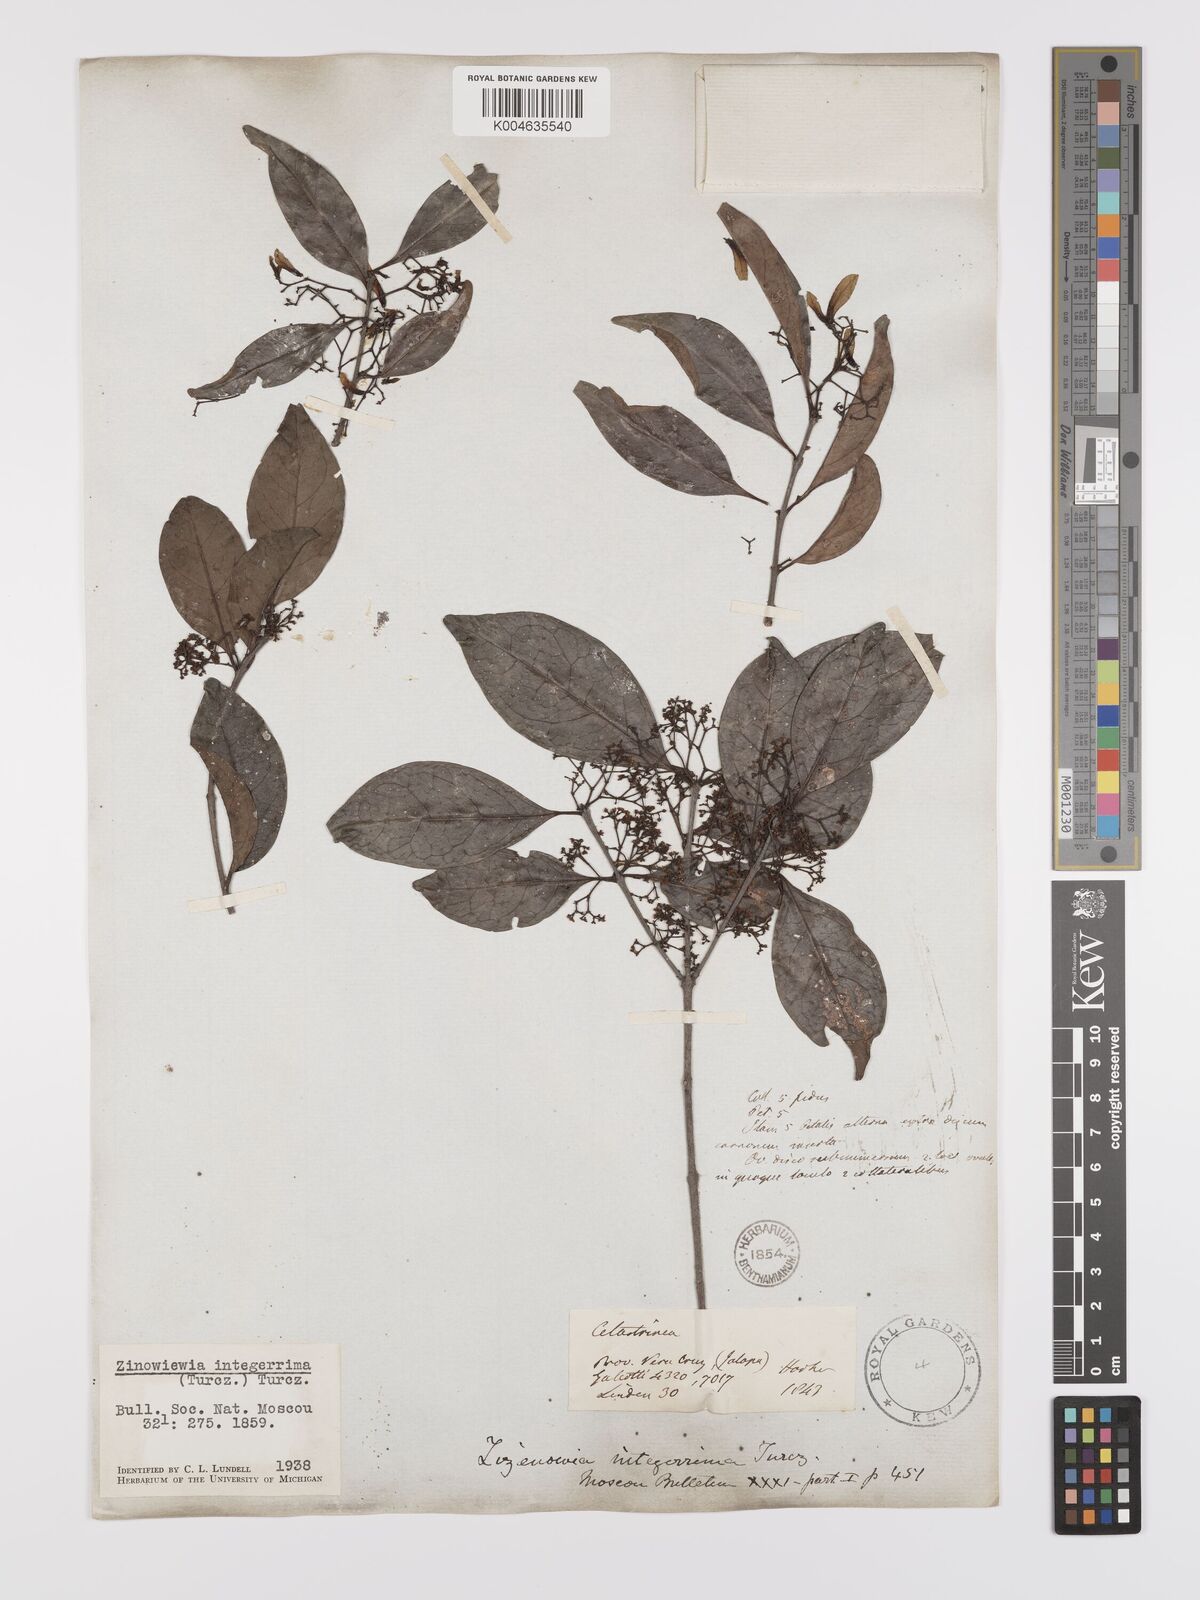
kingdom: Plantae
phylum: Tracheophyta
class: Magnoliopsida
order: Celastrales
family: Celastraceae
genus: Zinowiewia
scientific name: Zinowiewia integerrima
